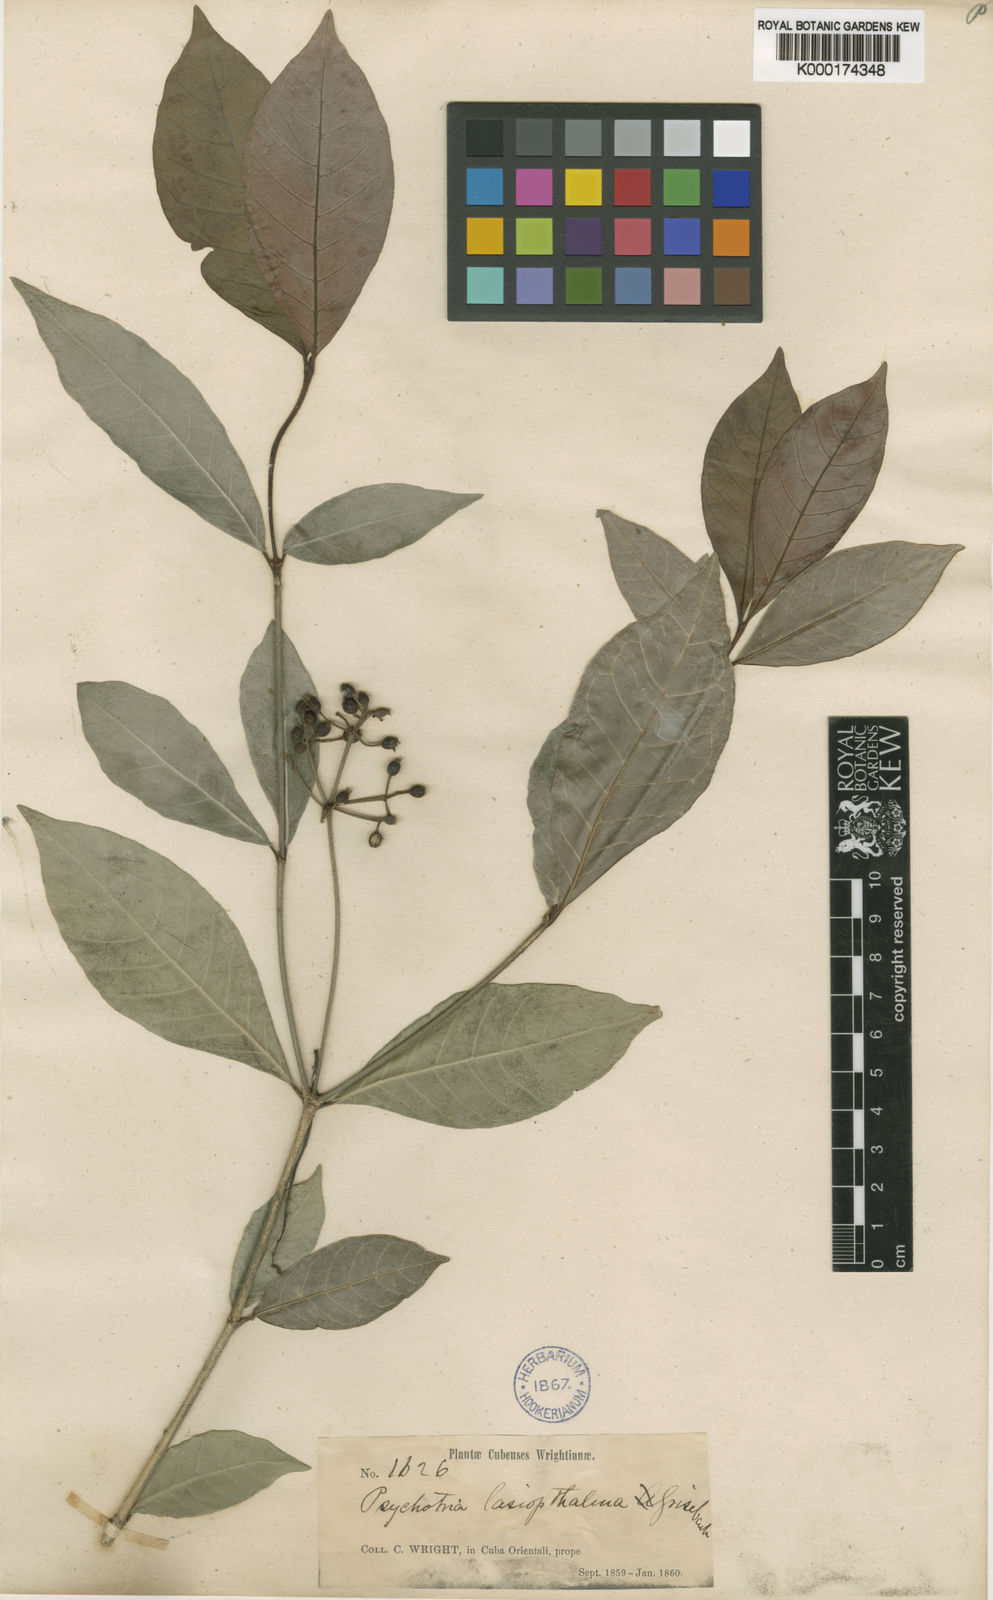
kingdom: Plantae
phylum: Tracheophyta
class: Magnoliopsida
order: Gentianales
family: Rubiaceae
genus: Psychotria
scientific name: Psychotria lasiophthalma
